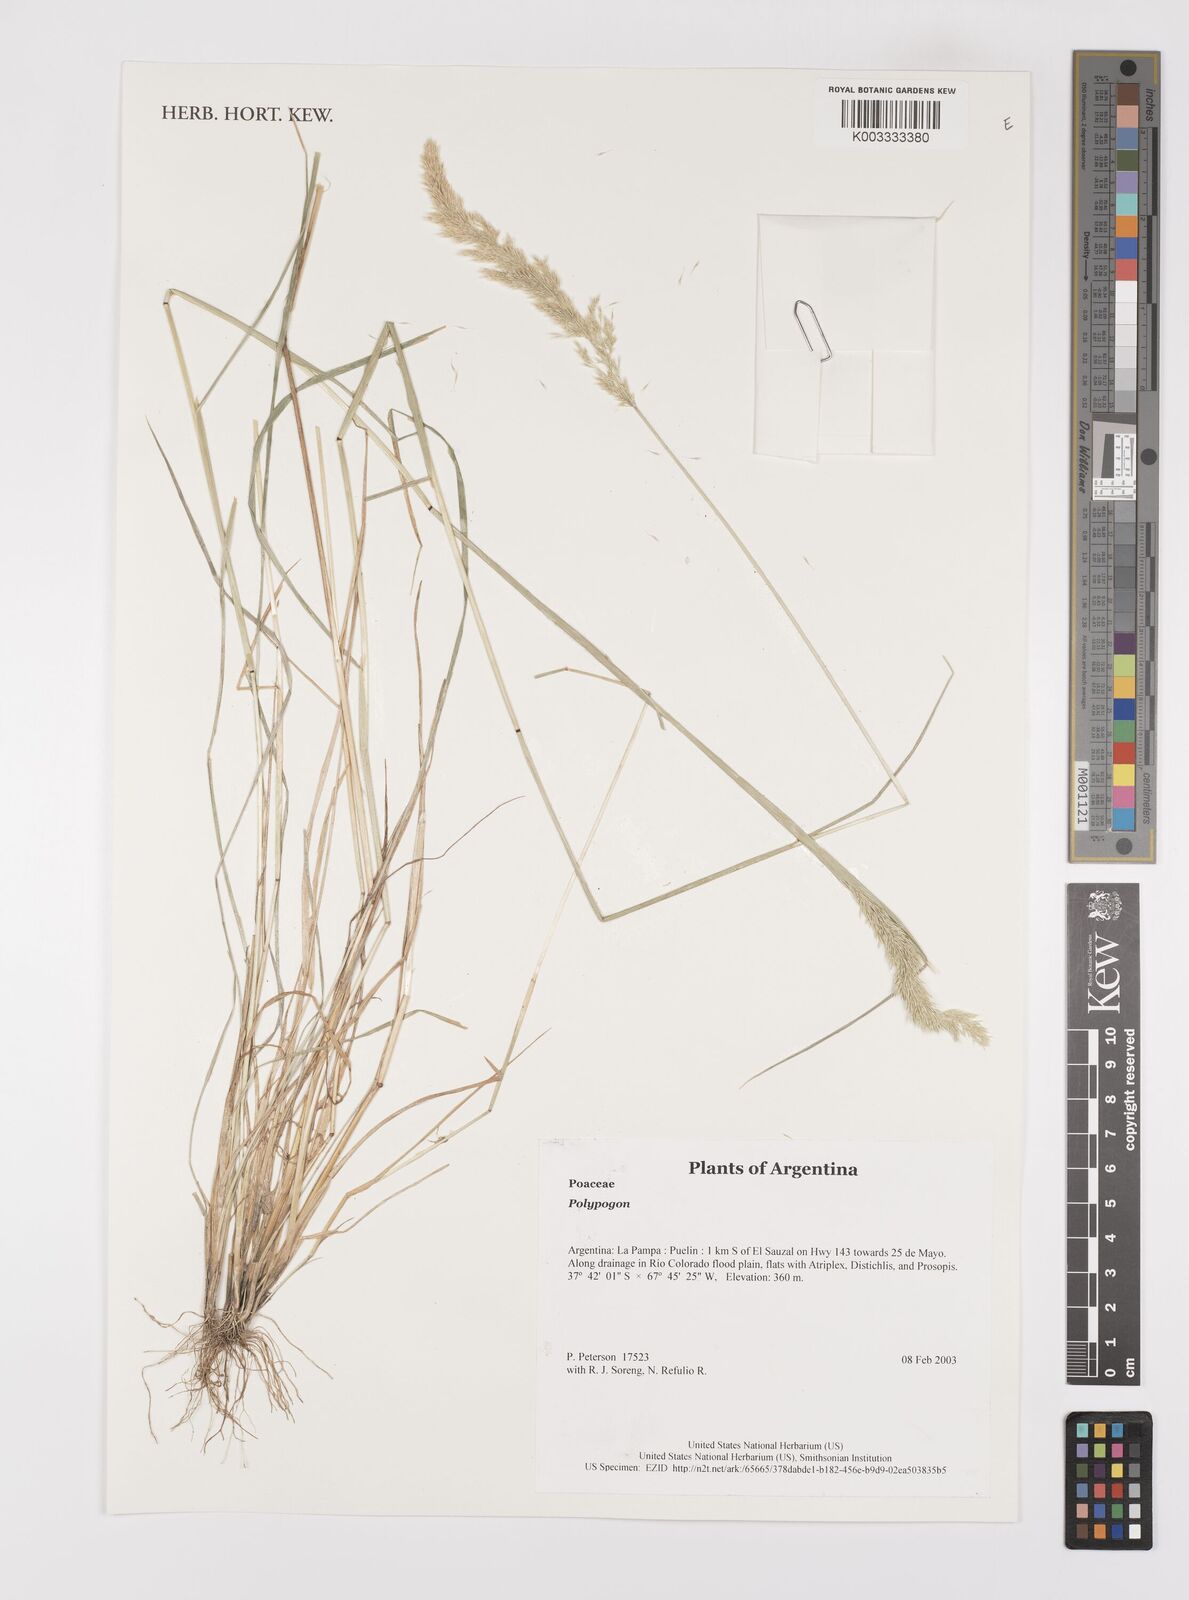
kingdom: Plantae
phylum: Tracheophyta
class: Liliopsida
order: Poales
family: Poaceae
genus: Polypogon
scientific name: Polypogon
